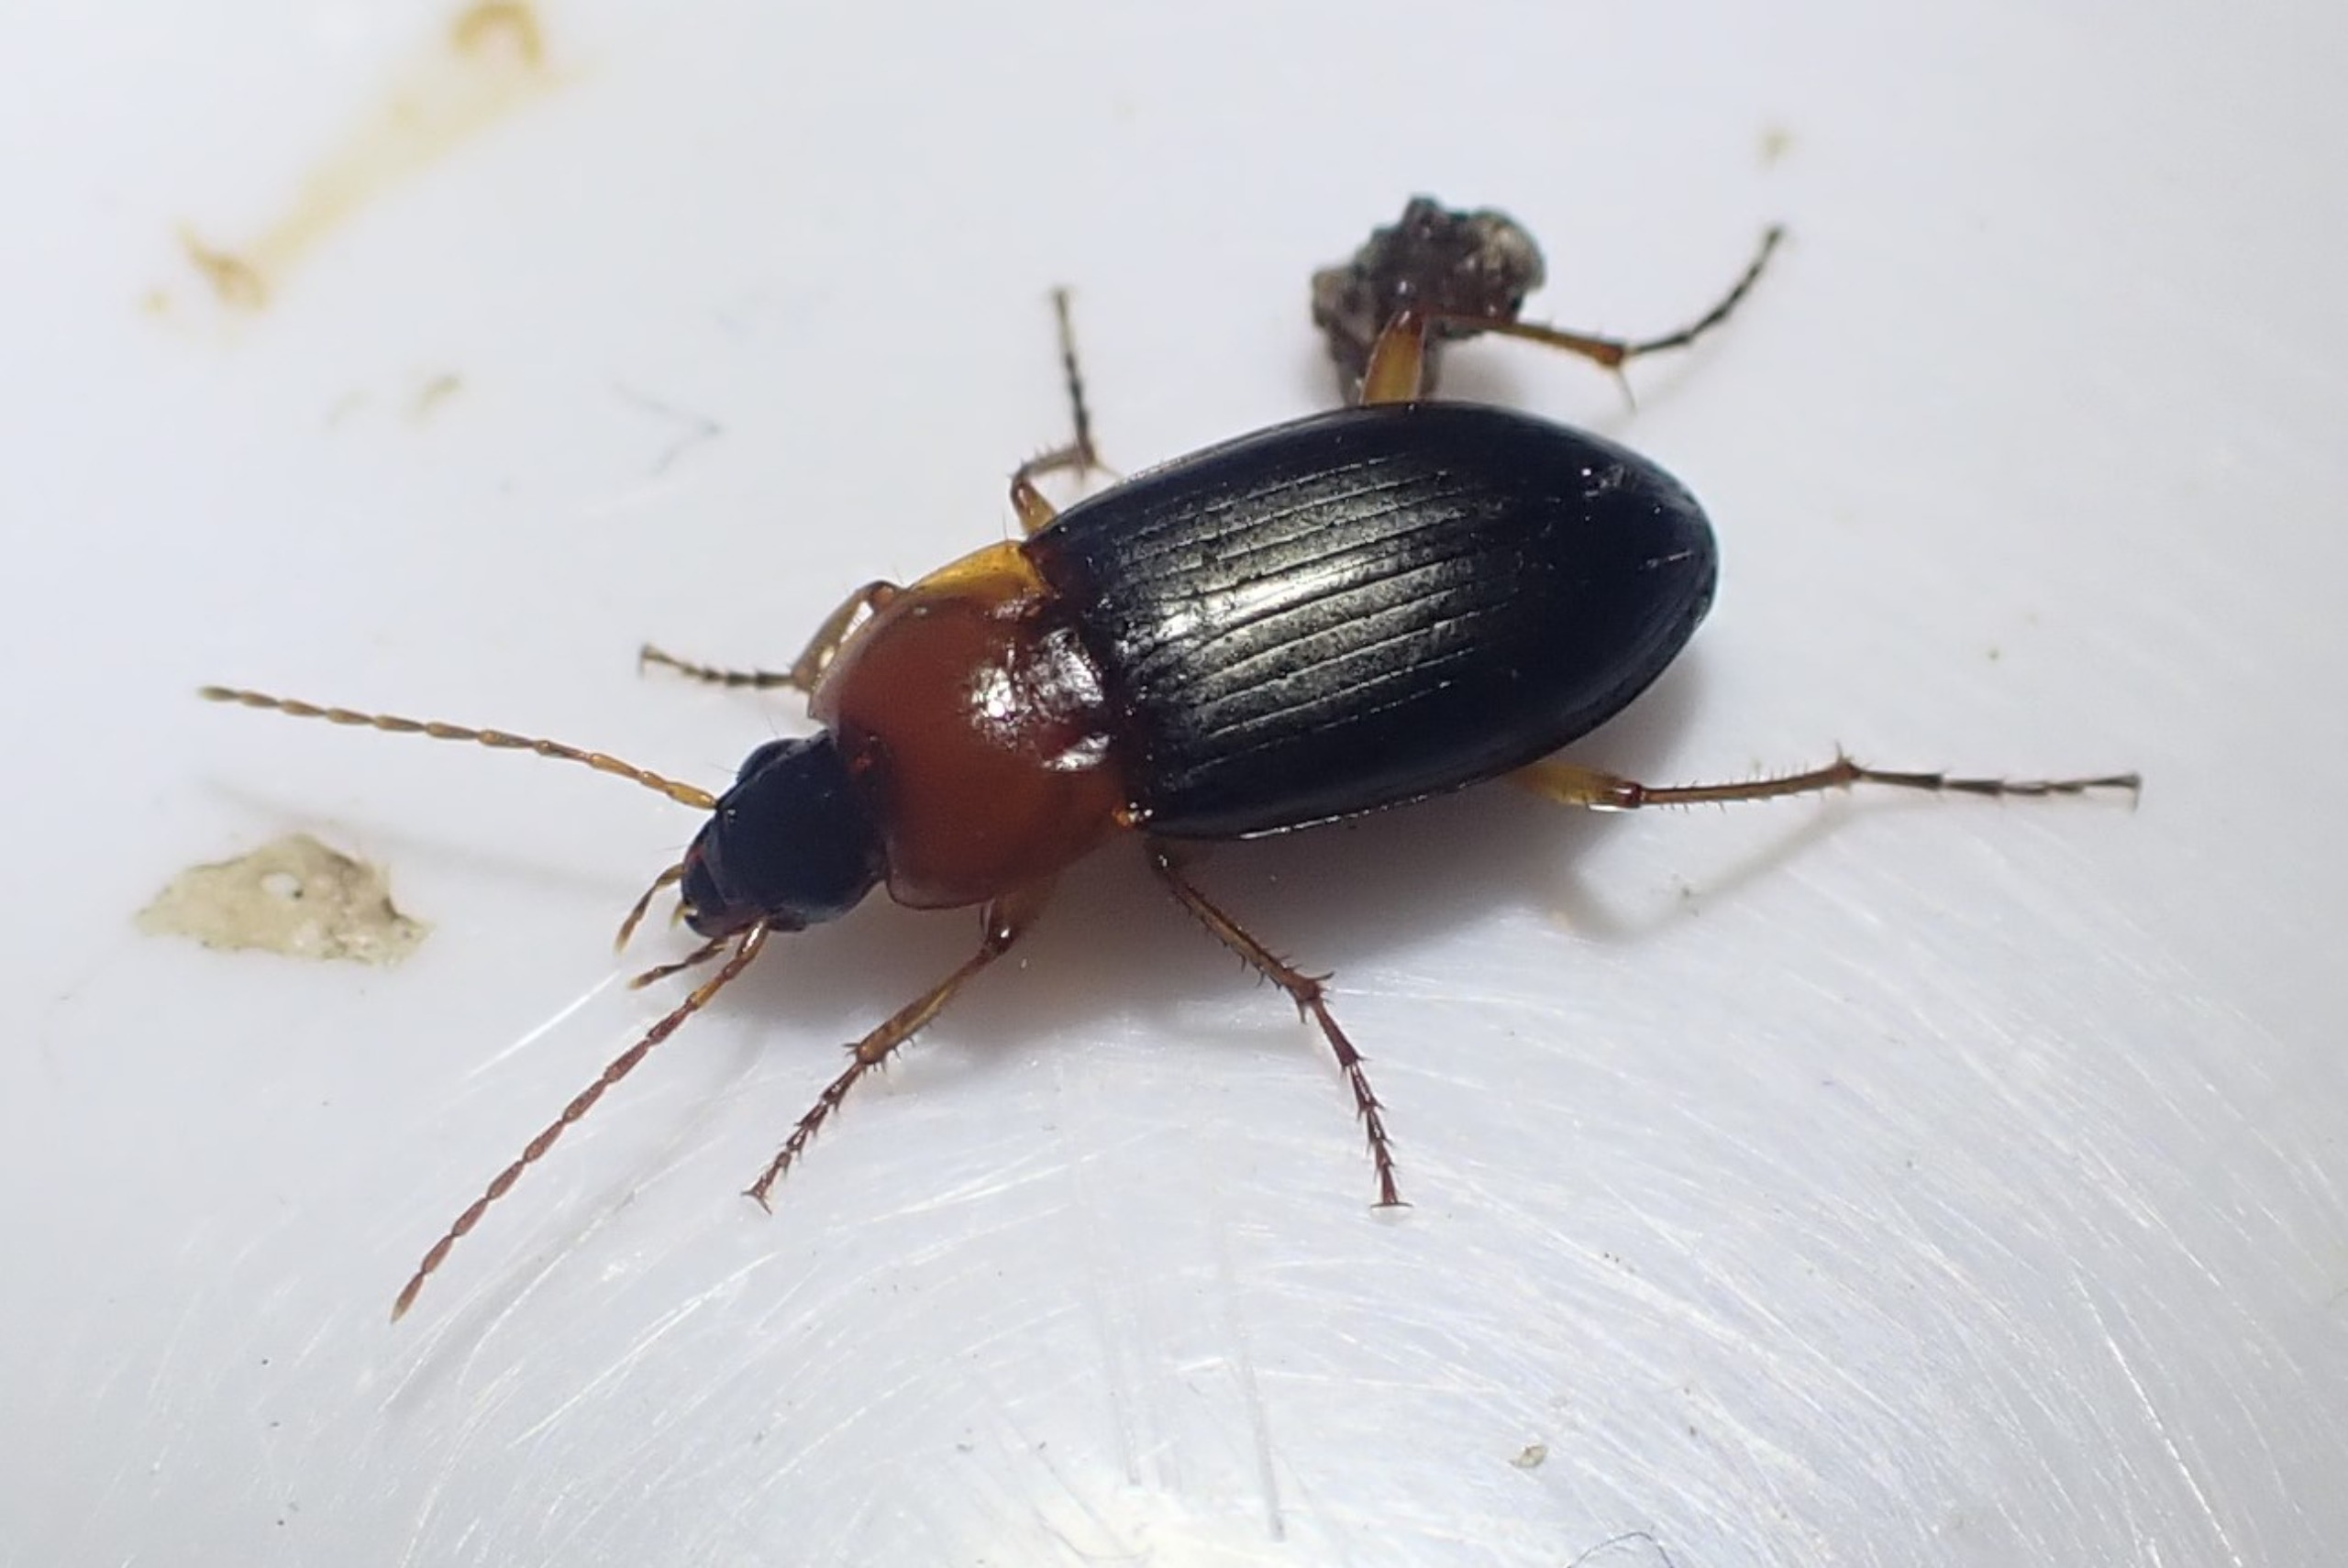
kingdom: Animalia
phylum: Arthropoda
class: Insecta
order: Coleoptera
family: Carabidae
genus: Calathus
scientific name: Calathus melanocephalus
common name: Rødbrystet torpedoløber
